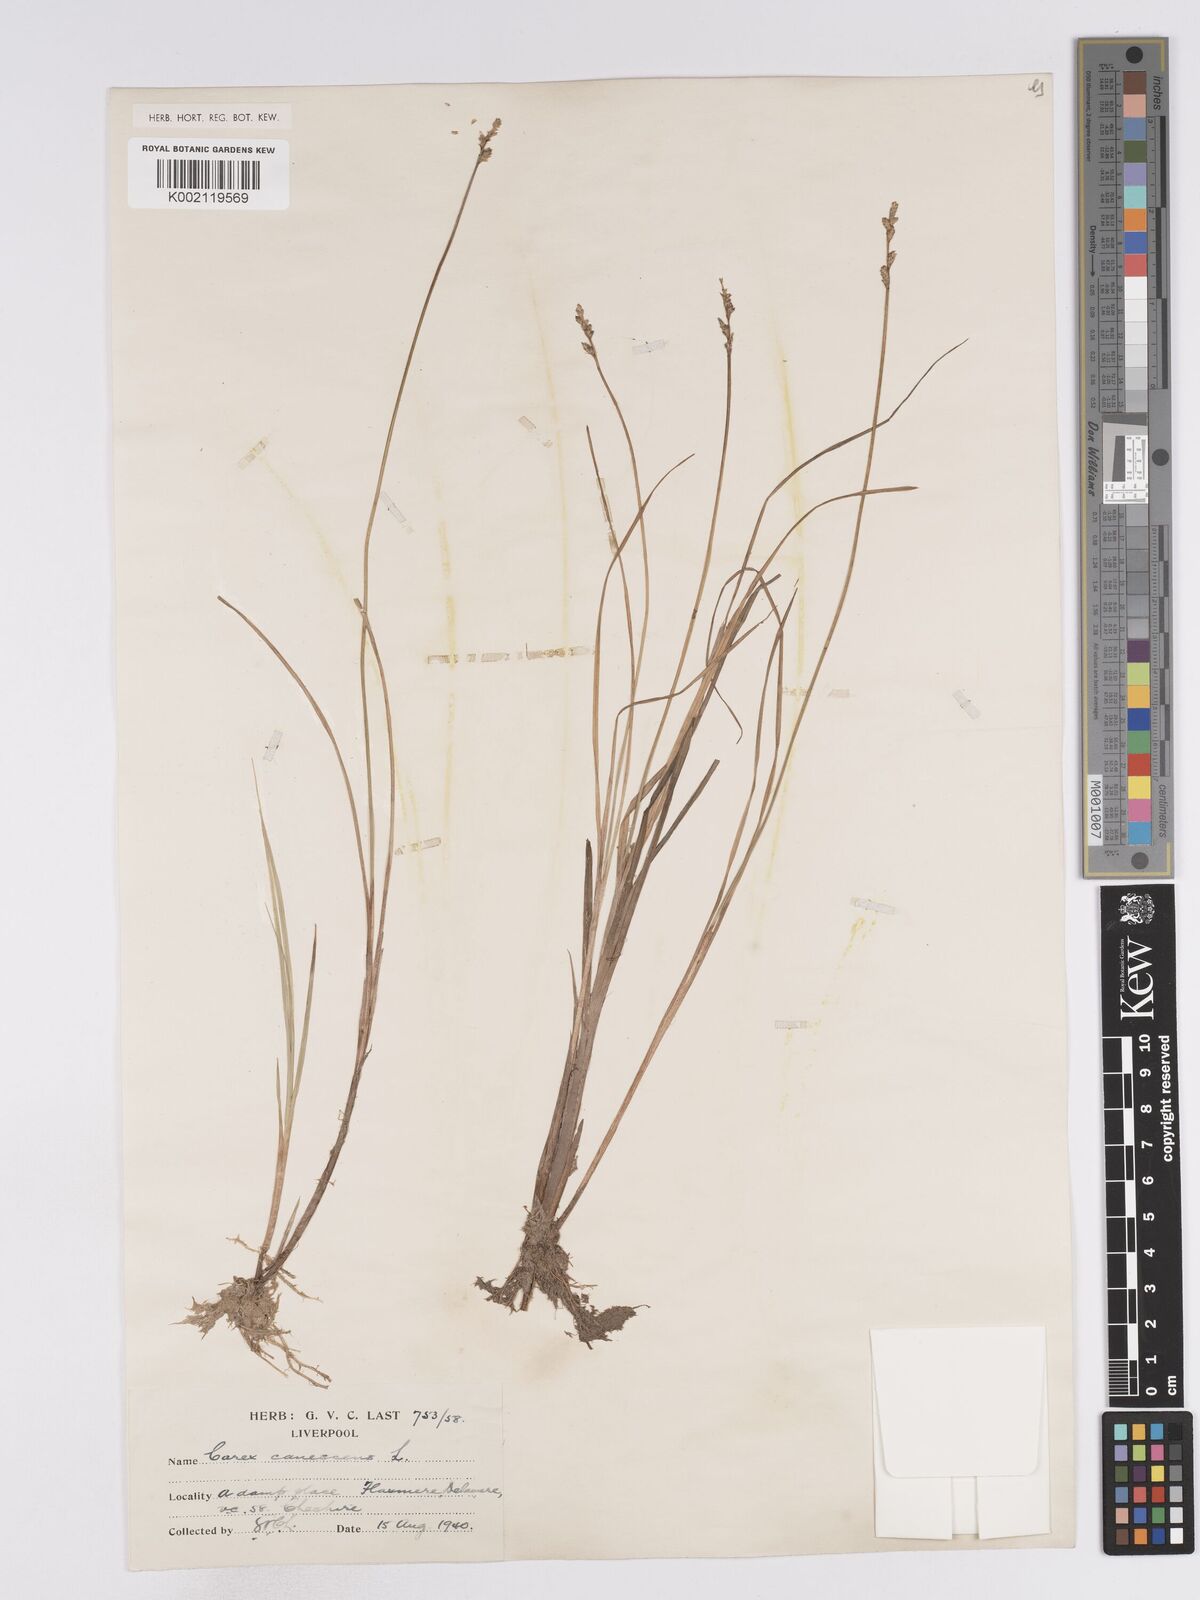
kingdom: Plantae
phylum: Tracheophyta
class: Liliopsida
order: Poales
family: Cyperaceae
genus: Carex
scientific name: Carex curta
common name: White sedge
